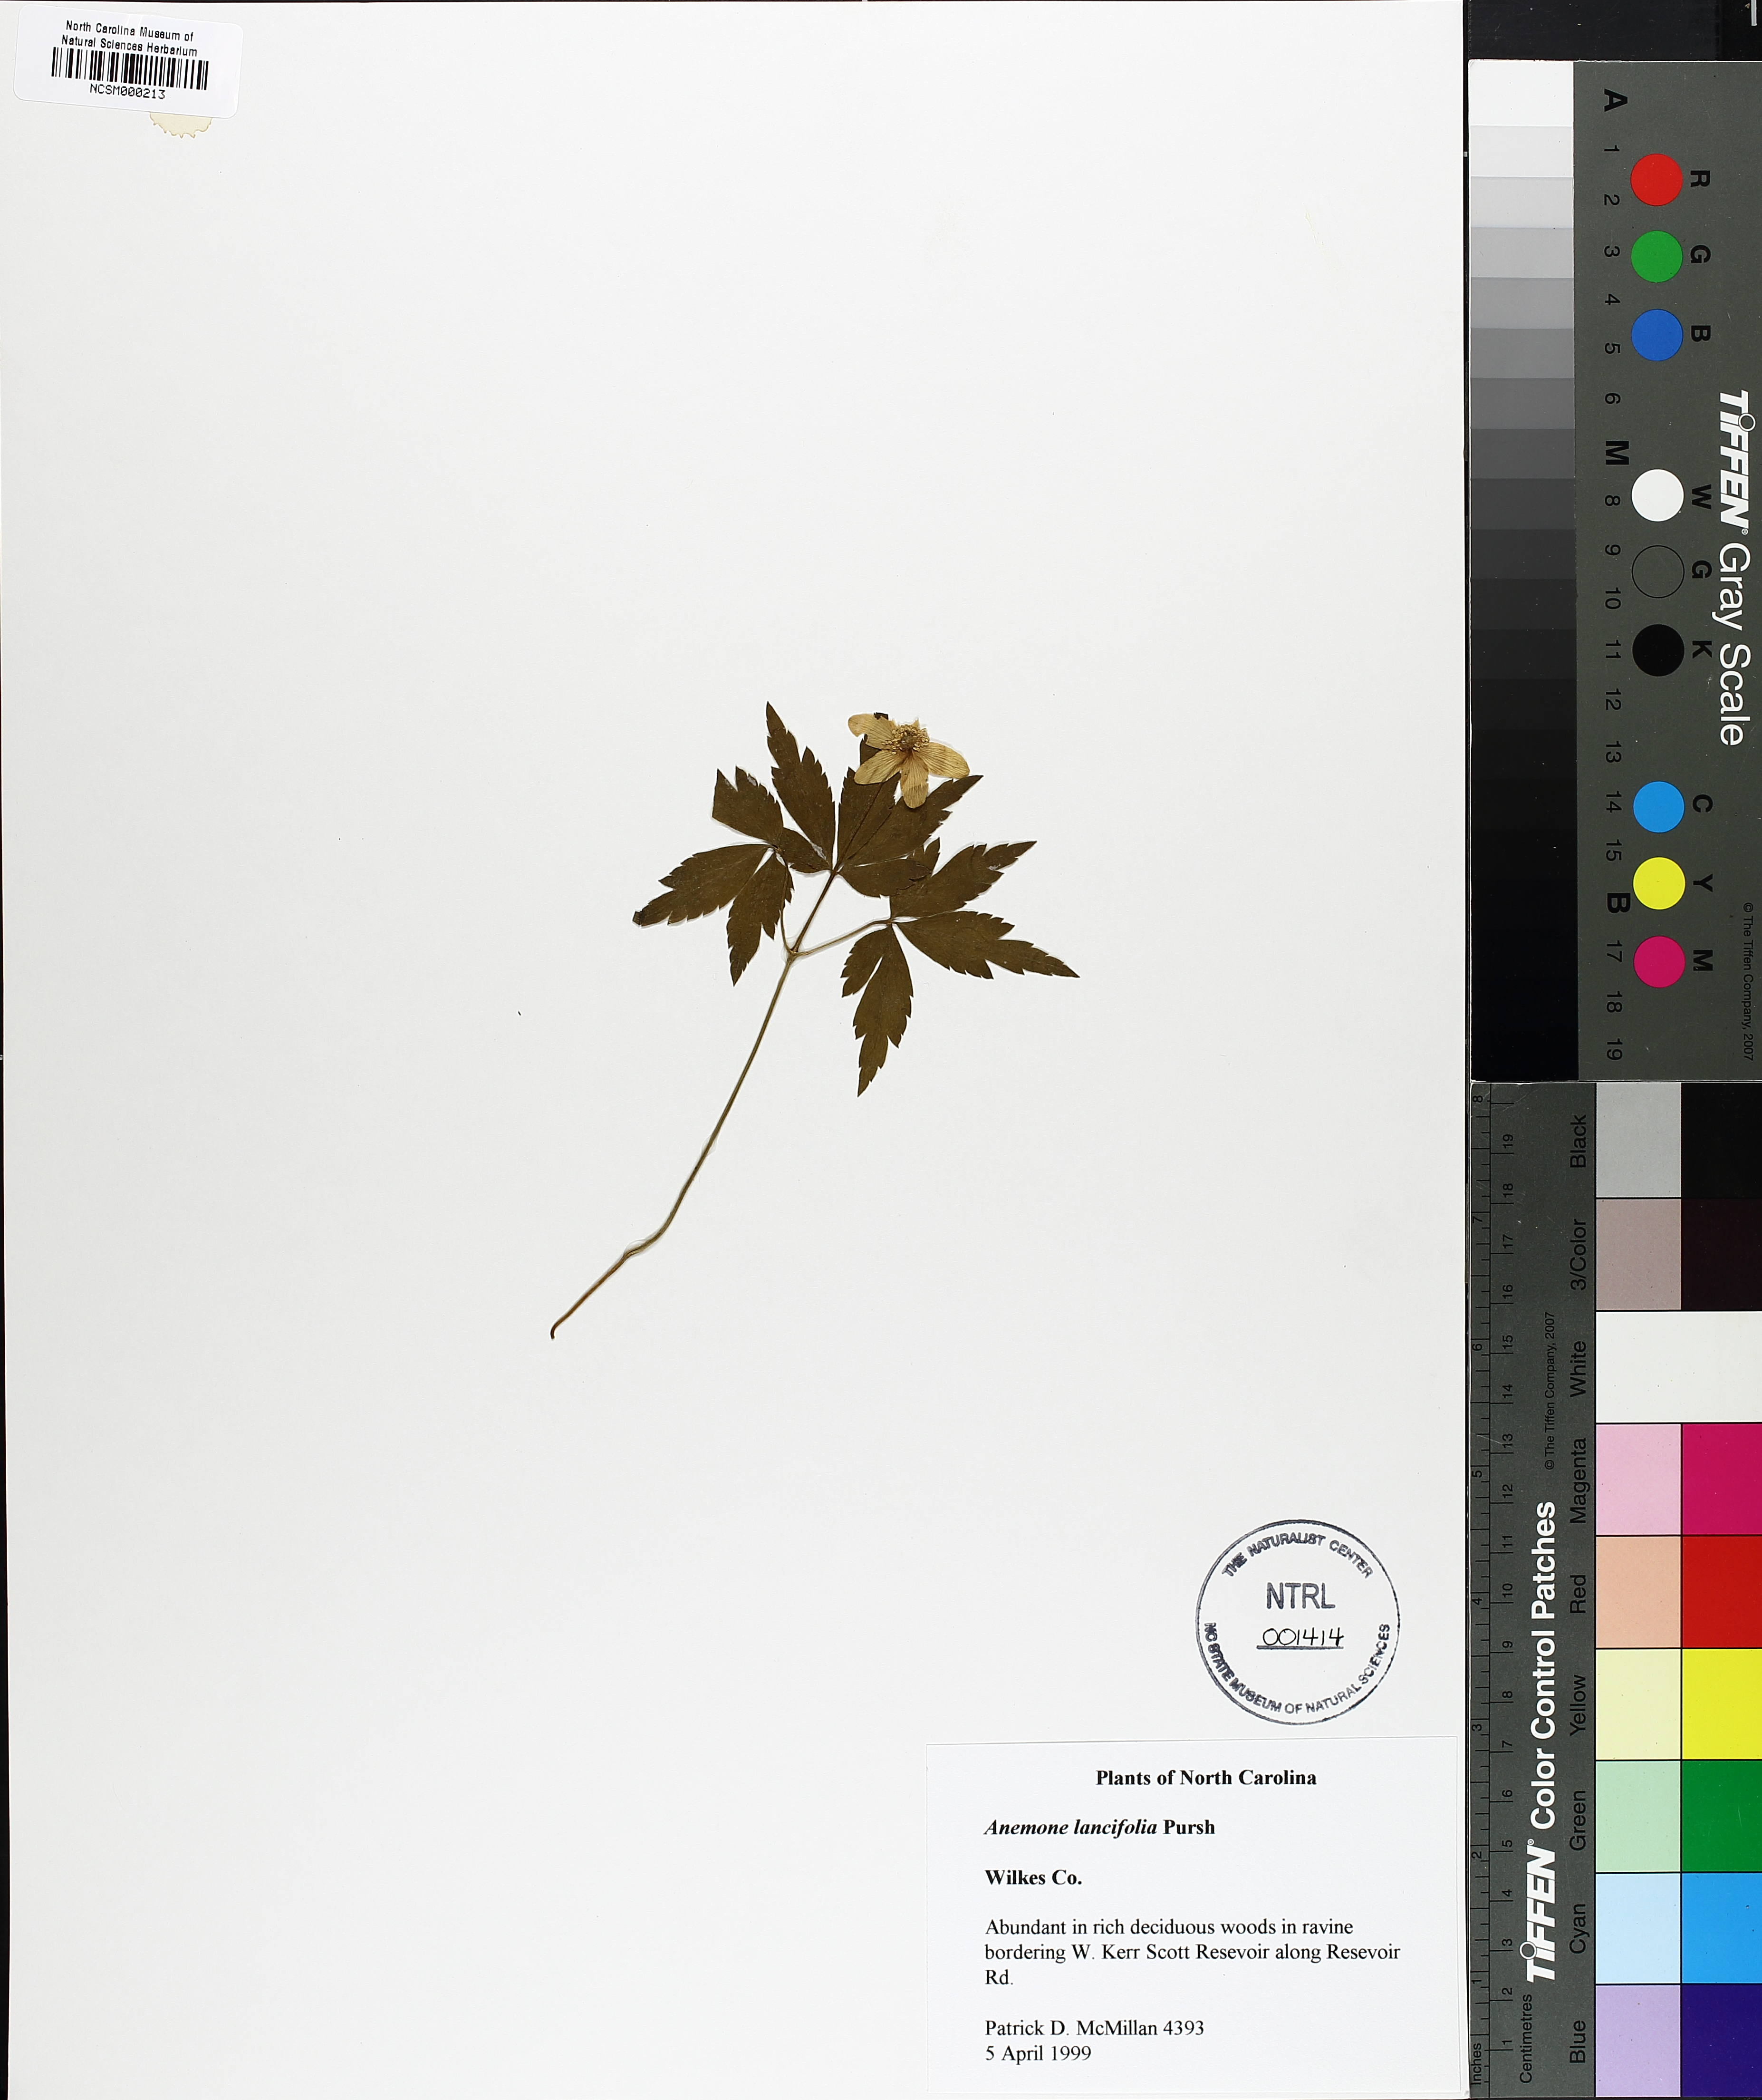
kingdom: Plantae
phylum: Tracheophyta
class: Magnoliopsida
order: Ranunculales
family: Ranunculaceae
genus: Anemone
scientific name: Anemone lancifolia
